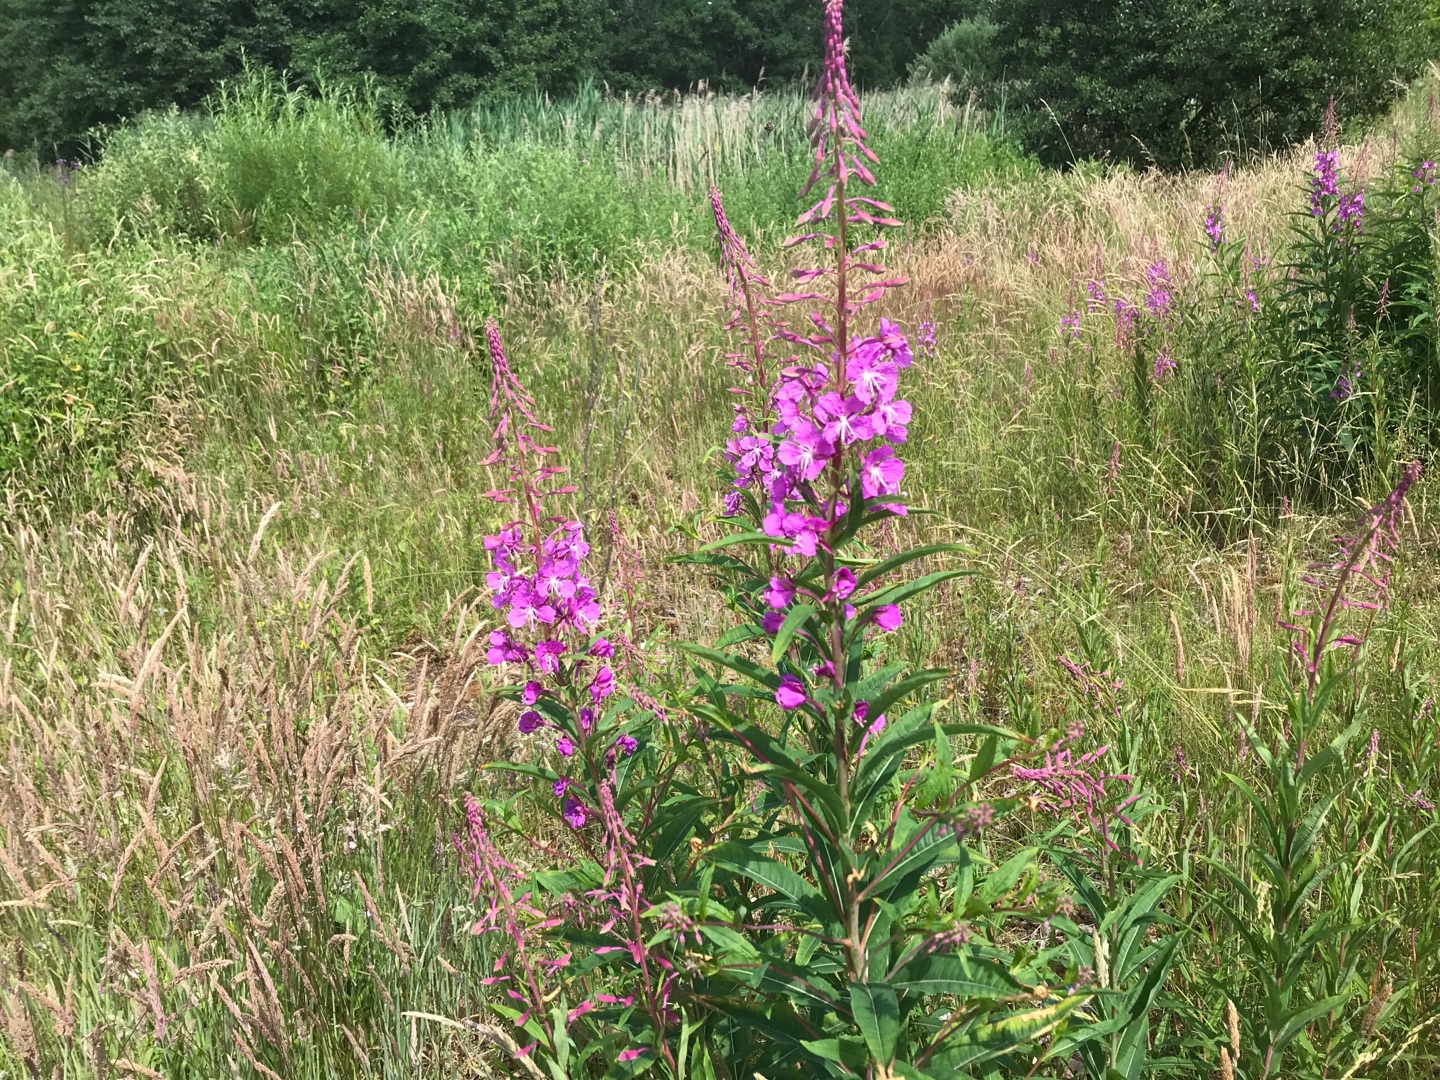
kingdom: Plantae
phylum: Tracheophyta
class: Magnoliopsida
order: Myrtales
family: Onagraceae
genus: Chamaenerion
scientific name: Chamaenerion angustifolium
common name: Gederams
